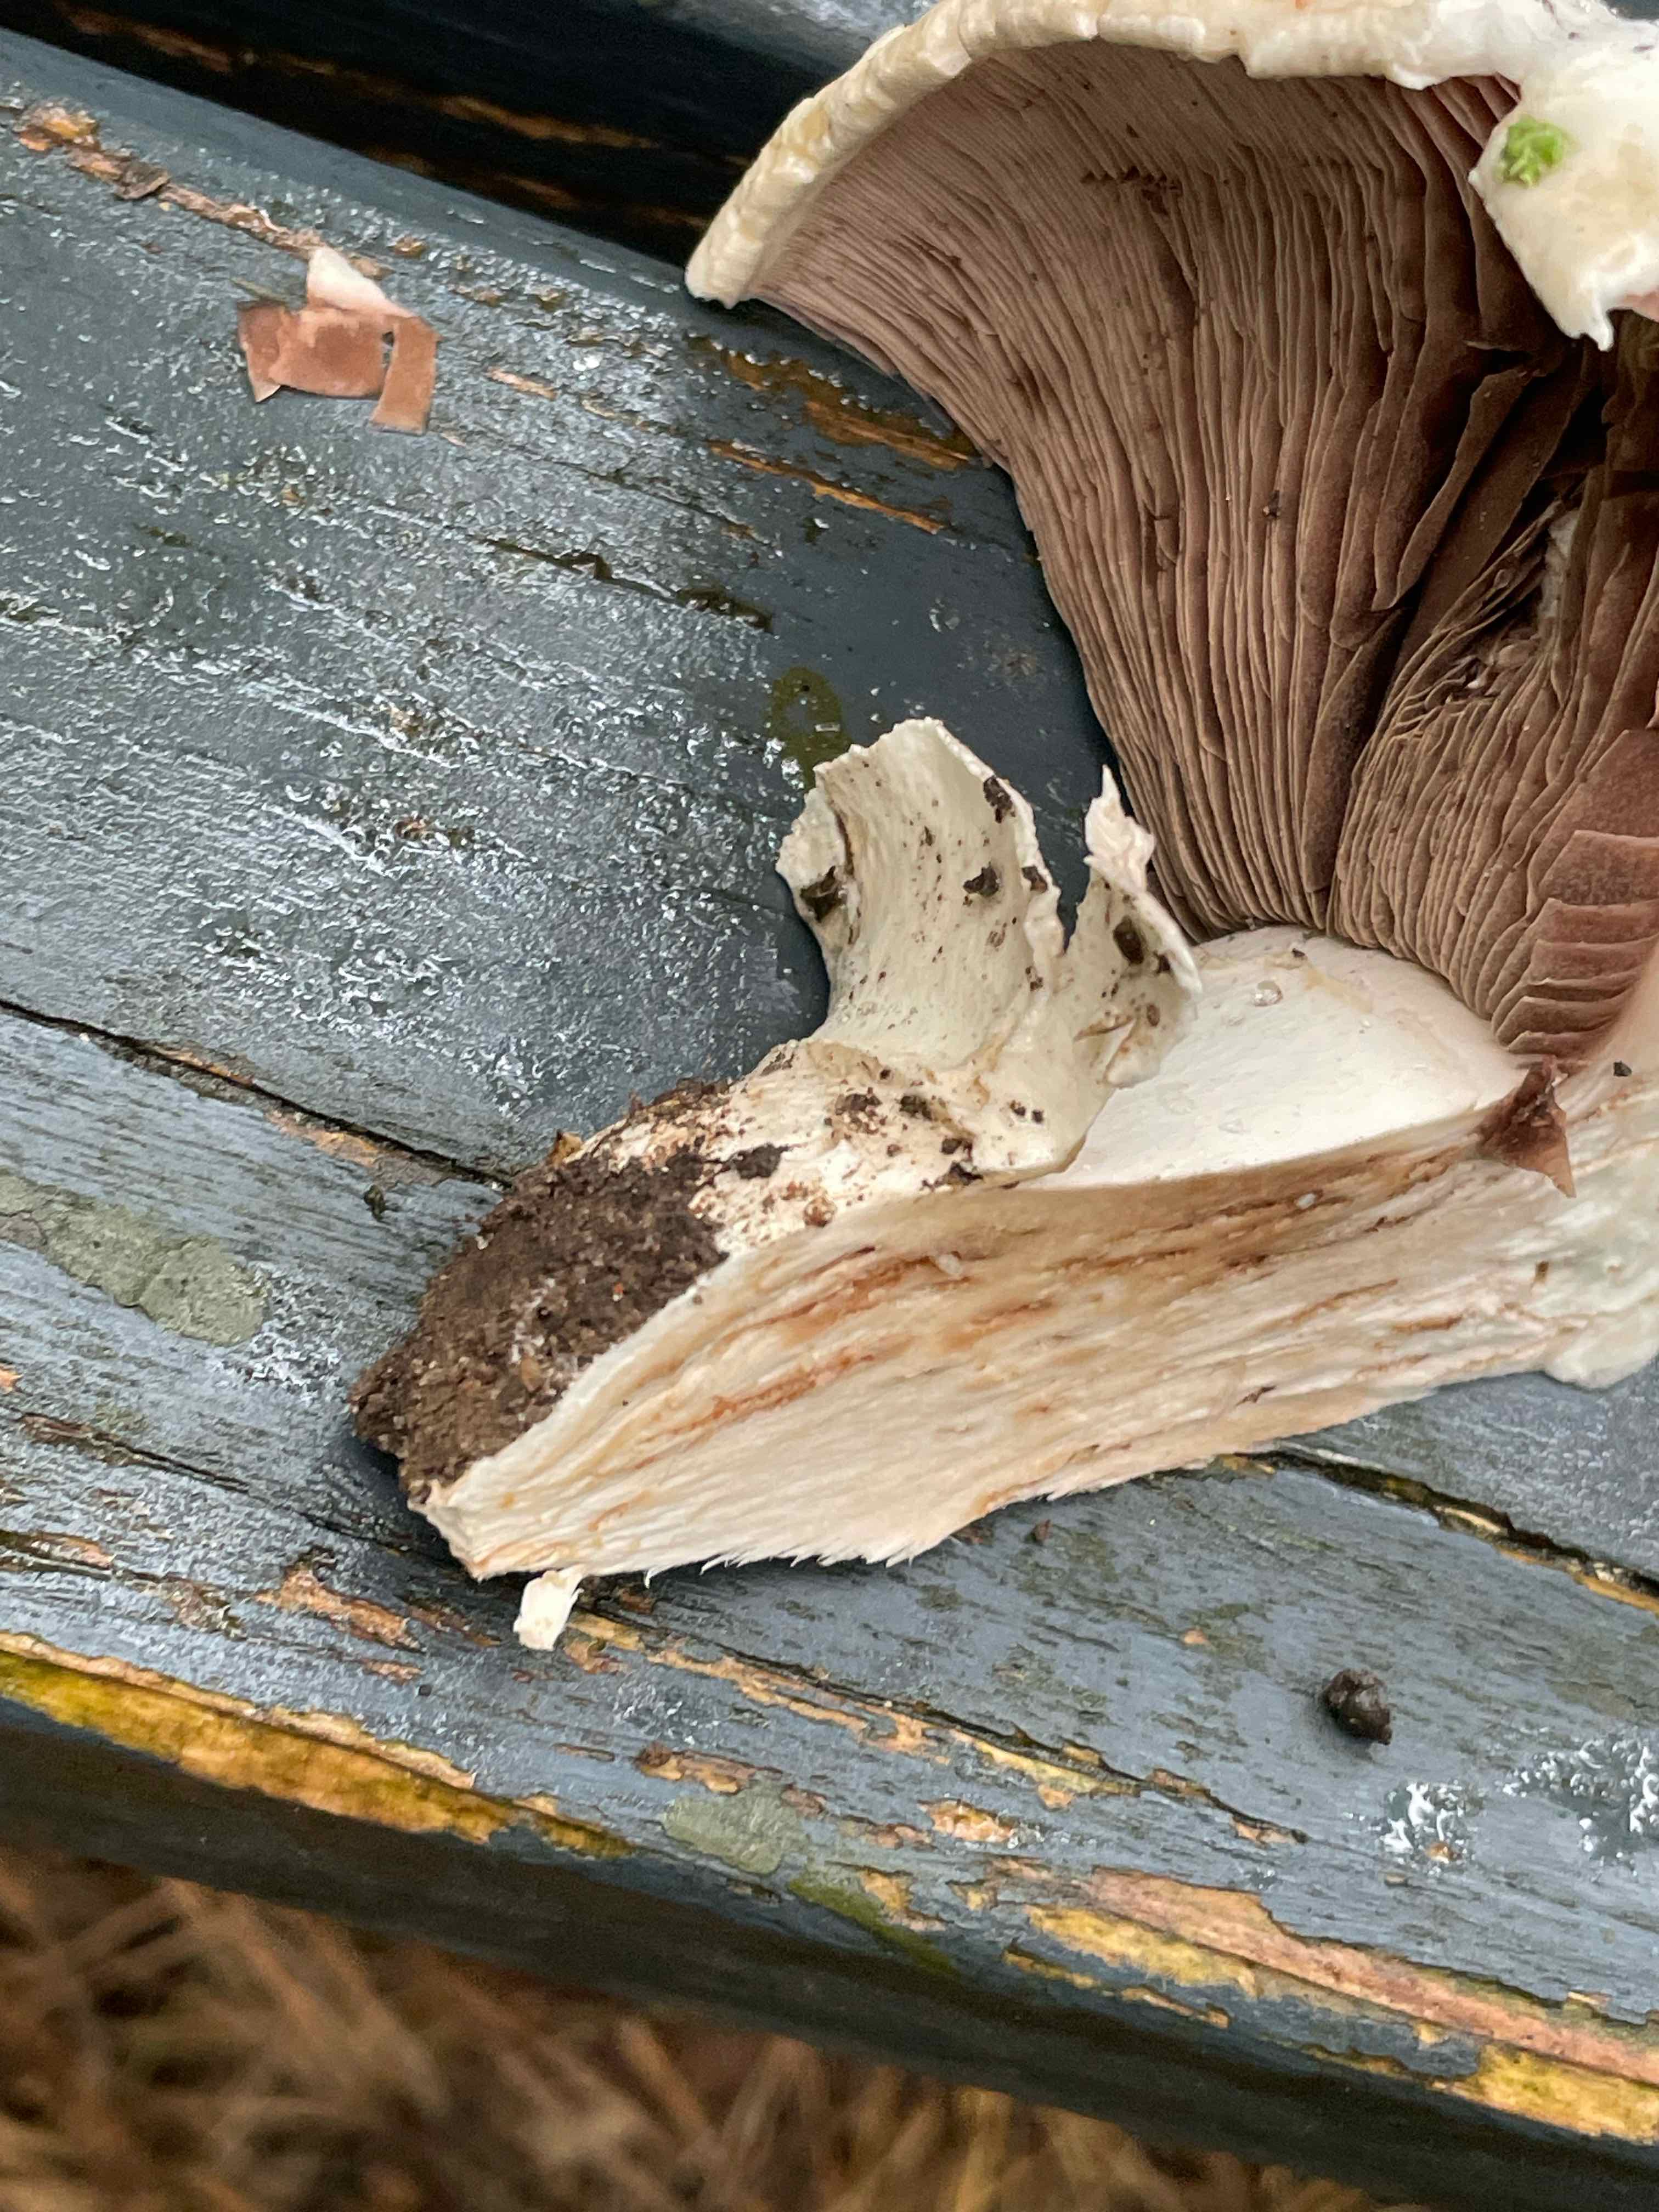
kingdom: Fungi
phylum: Basidiomycota
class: Agaricomycetes
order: Agaricales
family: Agaricaceae
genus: Agaricus
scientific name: Agaricus
